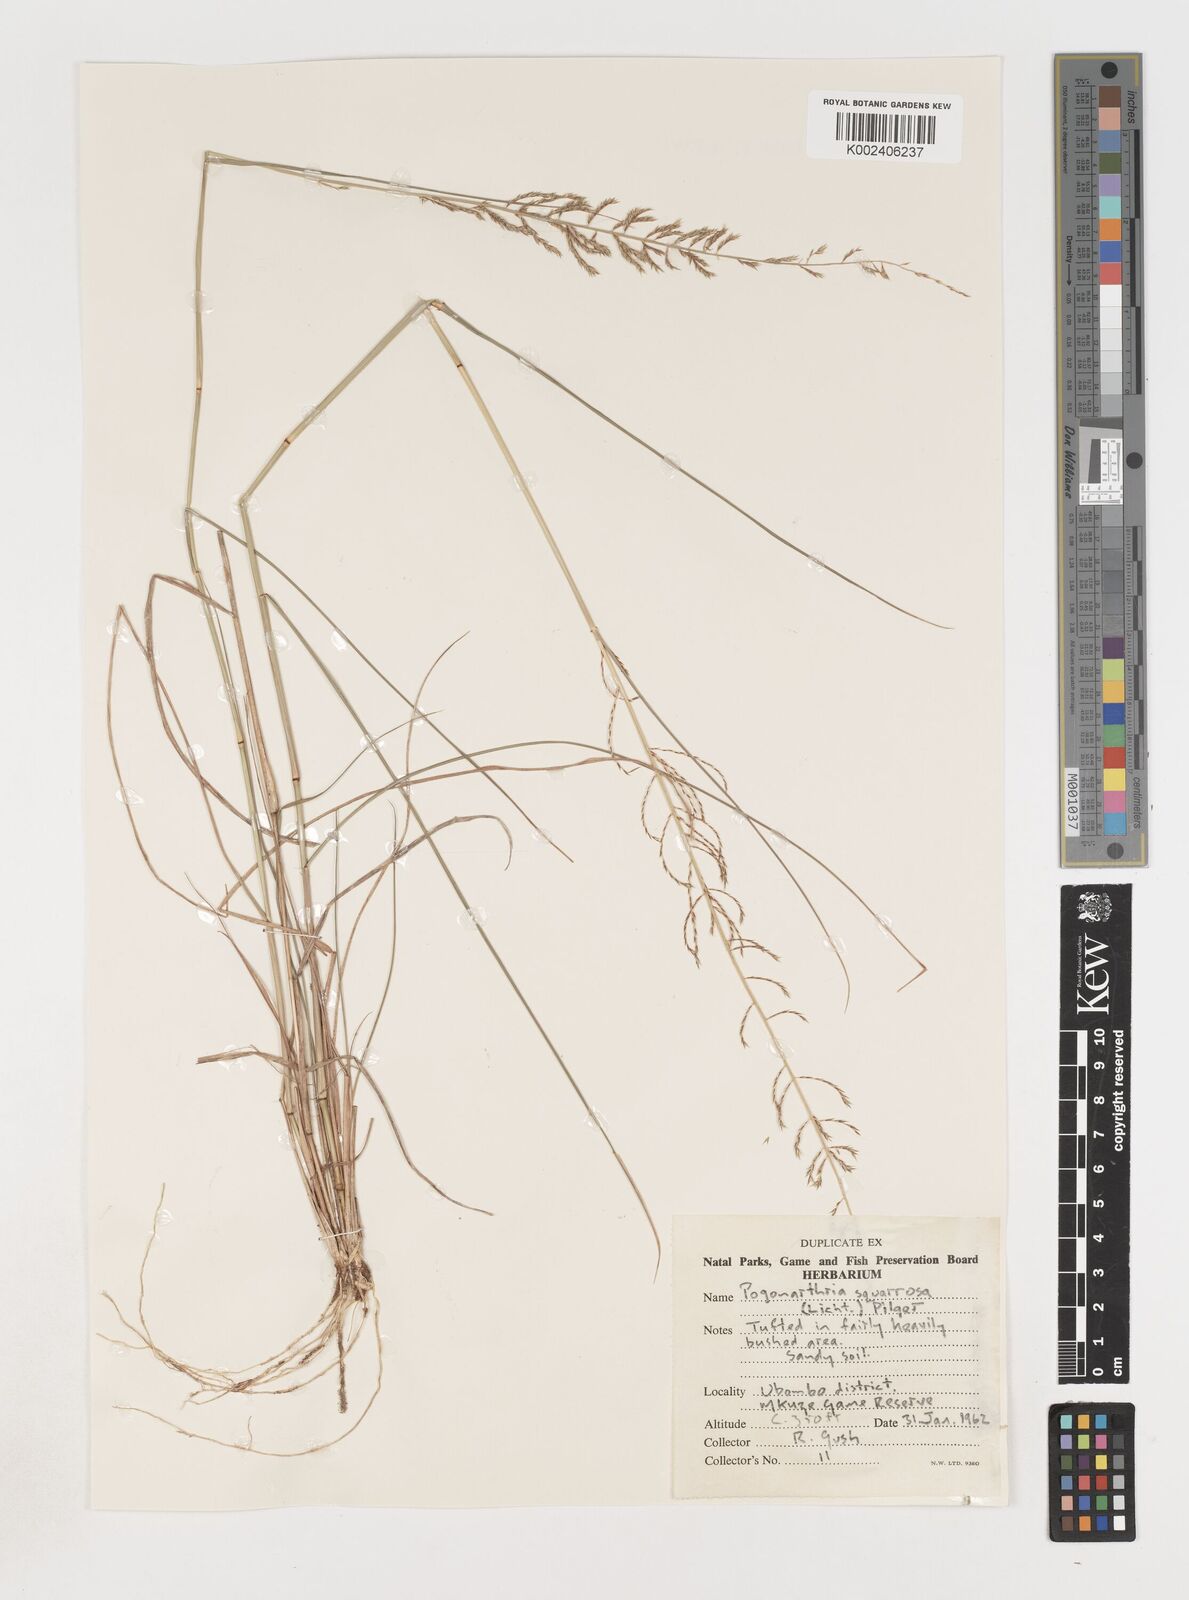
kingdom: Plantae
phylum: Tracheophyta
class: Liliopsida
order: Poales
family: Poaceae
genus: Pogonarthria
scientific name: Pogonarthria squarrosa
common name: Grass
